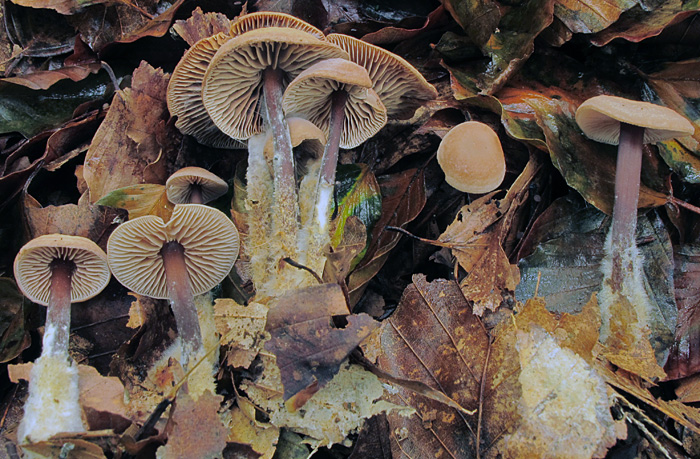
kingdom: Fungi
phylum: Basidiomycota
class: Agaricomycetes
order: Agaricales
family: Omphalotaceae
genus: Gymnopus
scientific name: Gymnopus fagiphilus
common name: bøgeløv-fladhat
